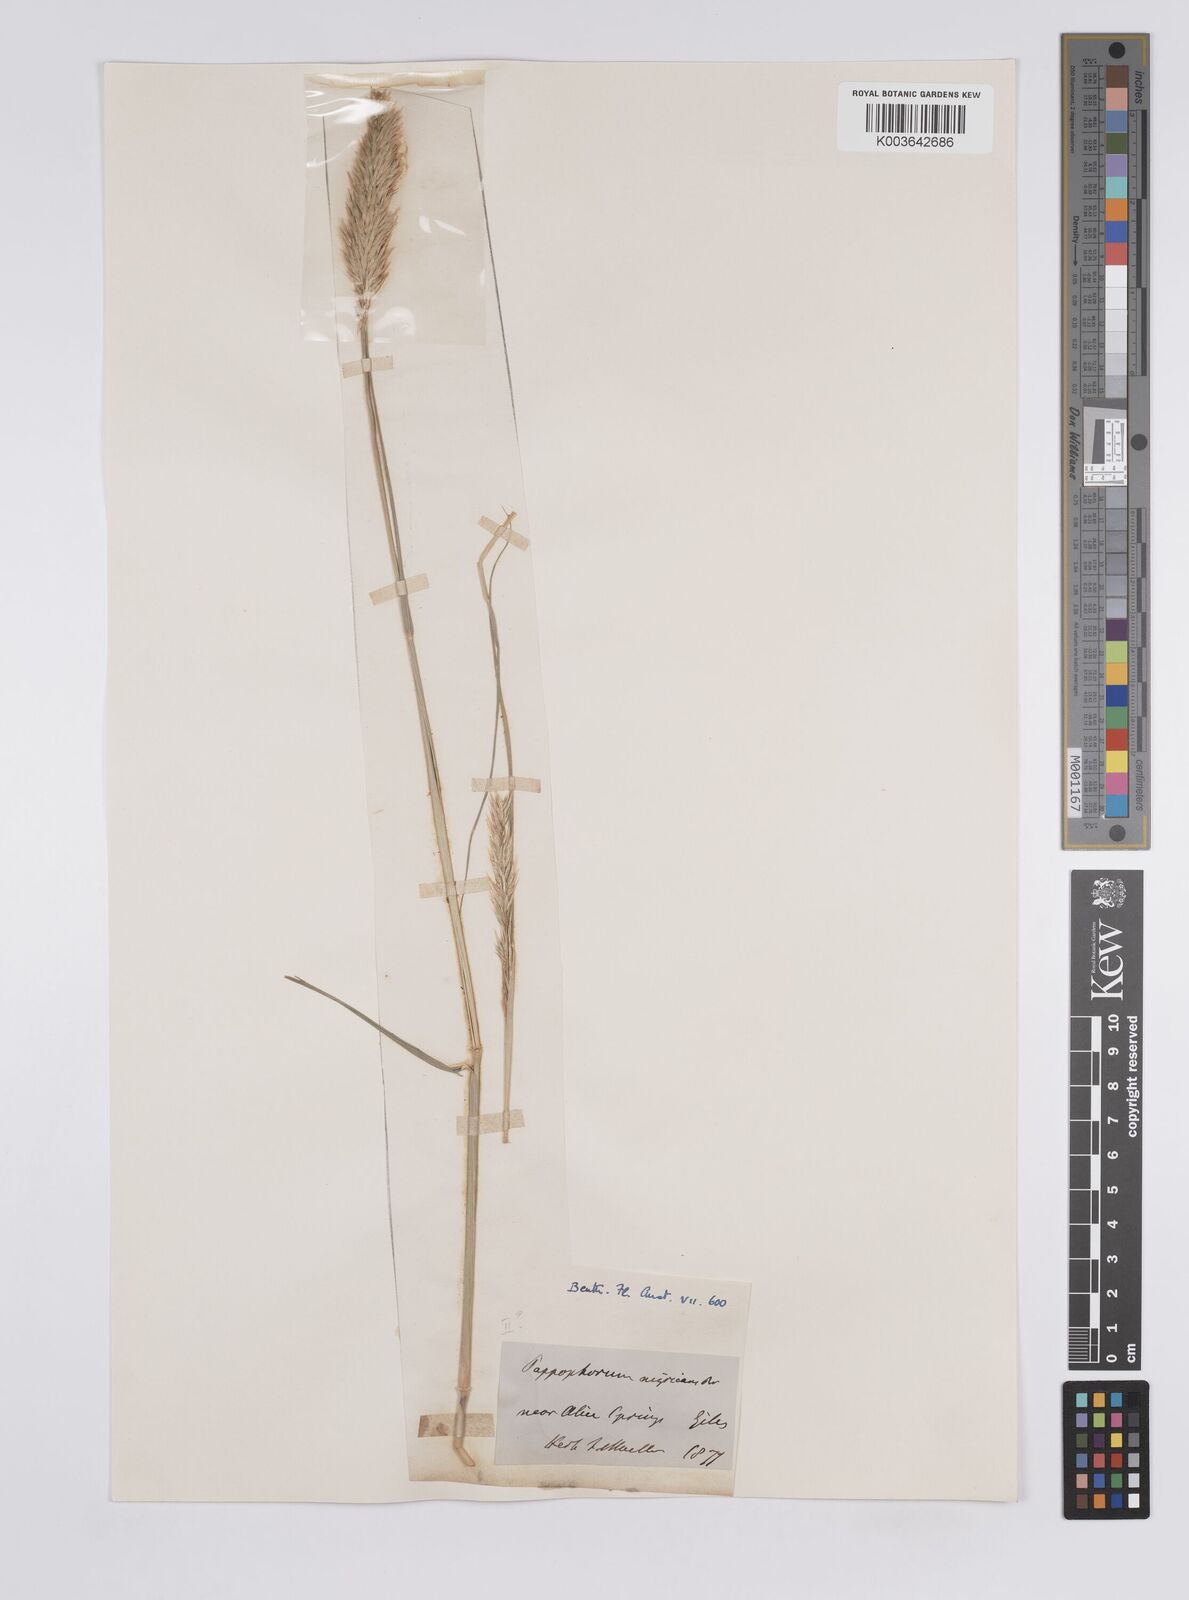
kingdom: Plantae
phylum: Tracheophyta
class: Liliopsida
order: Poales
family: Poaceae
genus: Enneapogon
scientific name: Enneapogon polyphyllus
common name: Leafy nineawn
